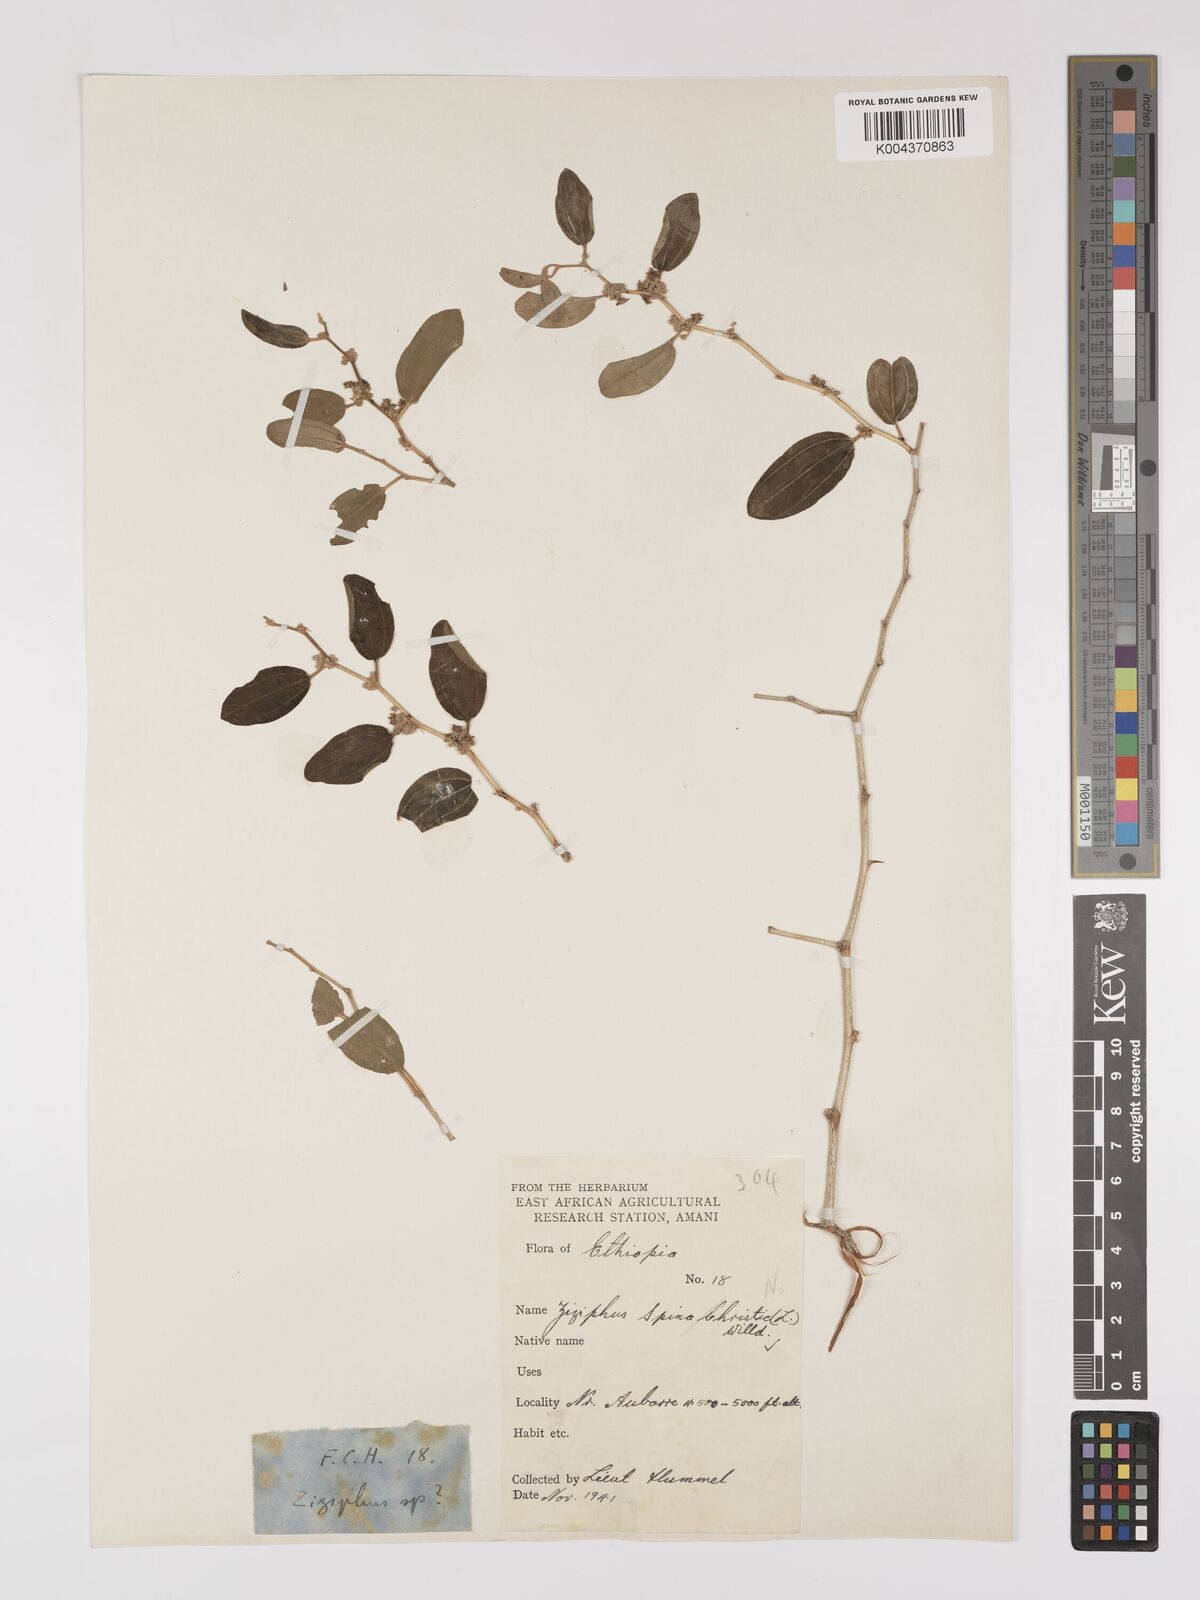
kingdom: Plantae
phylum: Tracheophyta
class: Magnoliopsida
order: Rosales
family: Rhamnaceae
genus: Ziziphus
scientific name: Ziziphus spina-christi
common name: Syrian christ-thorn
